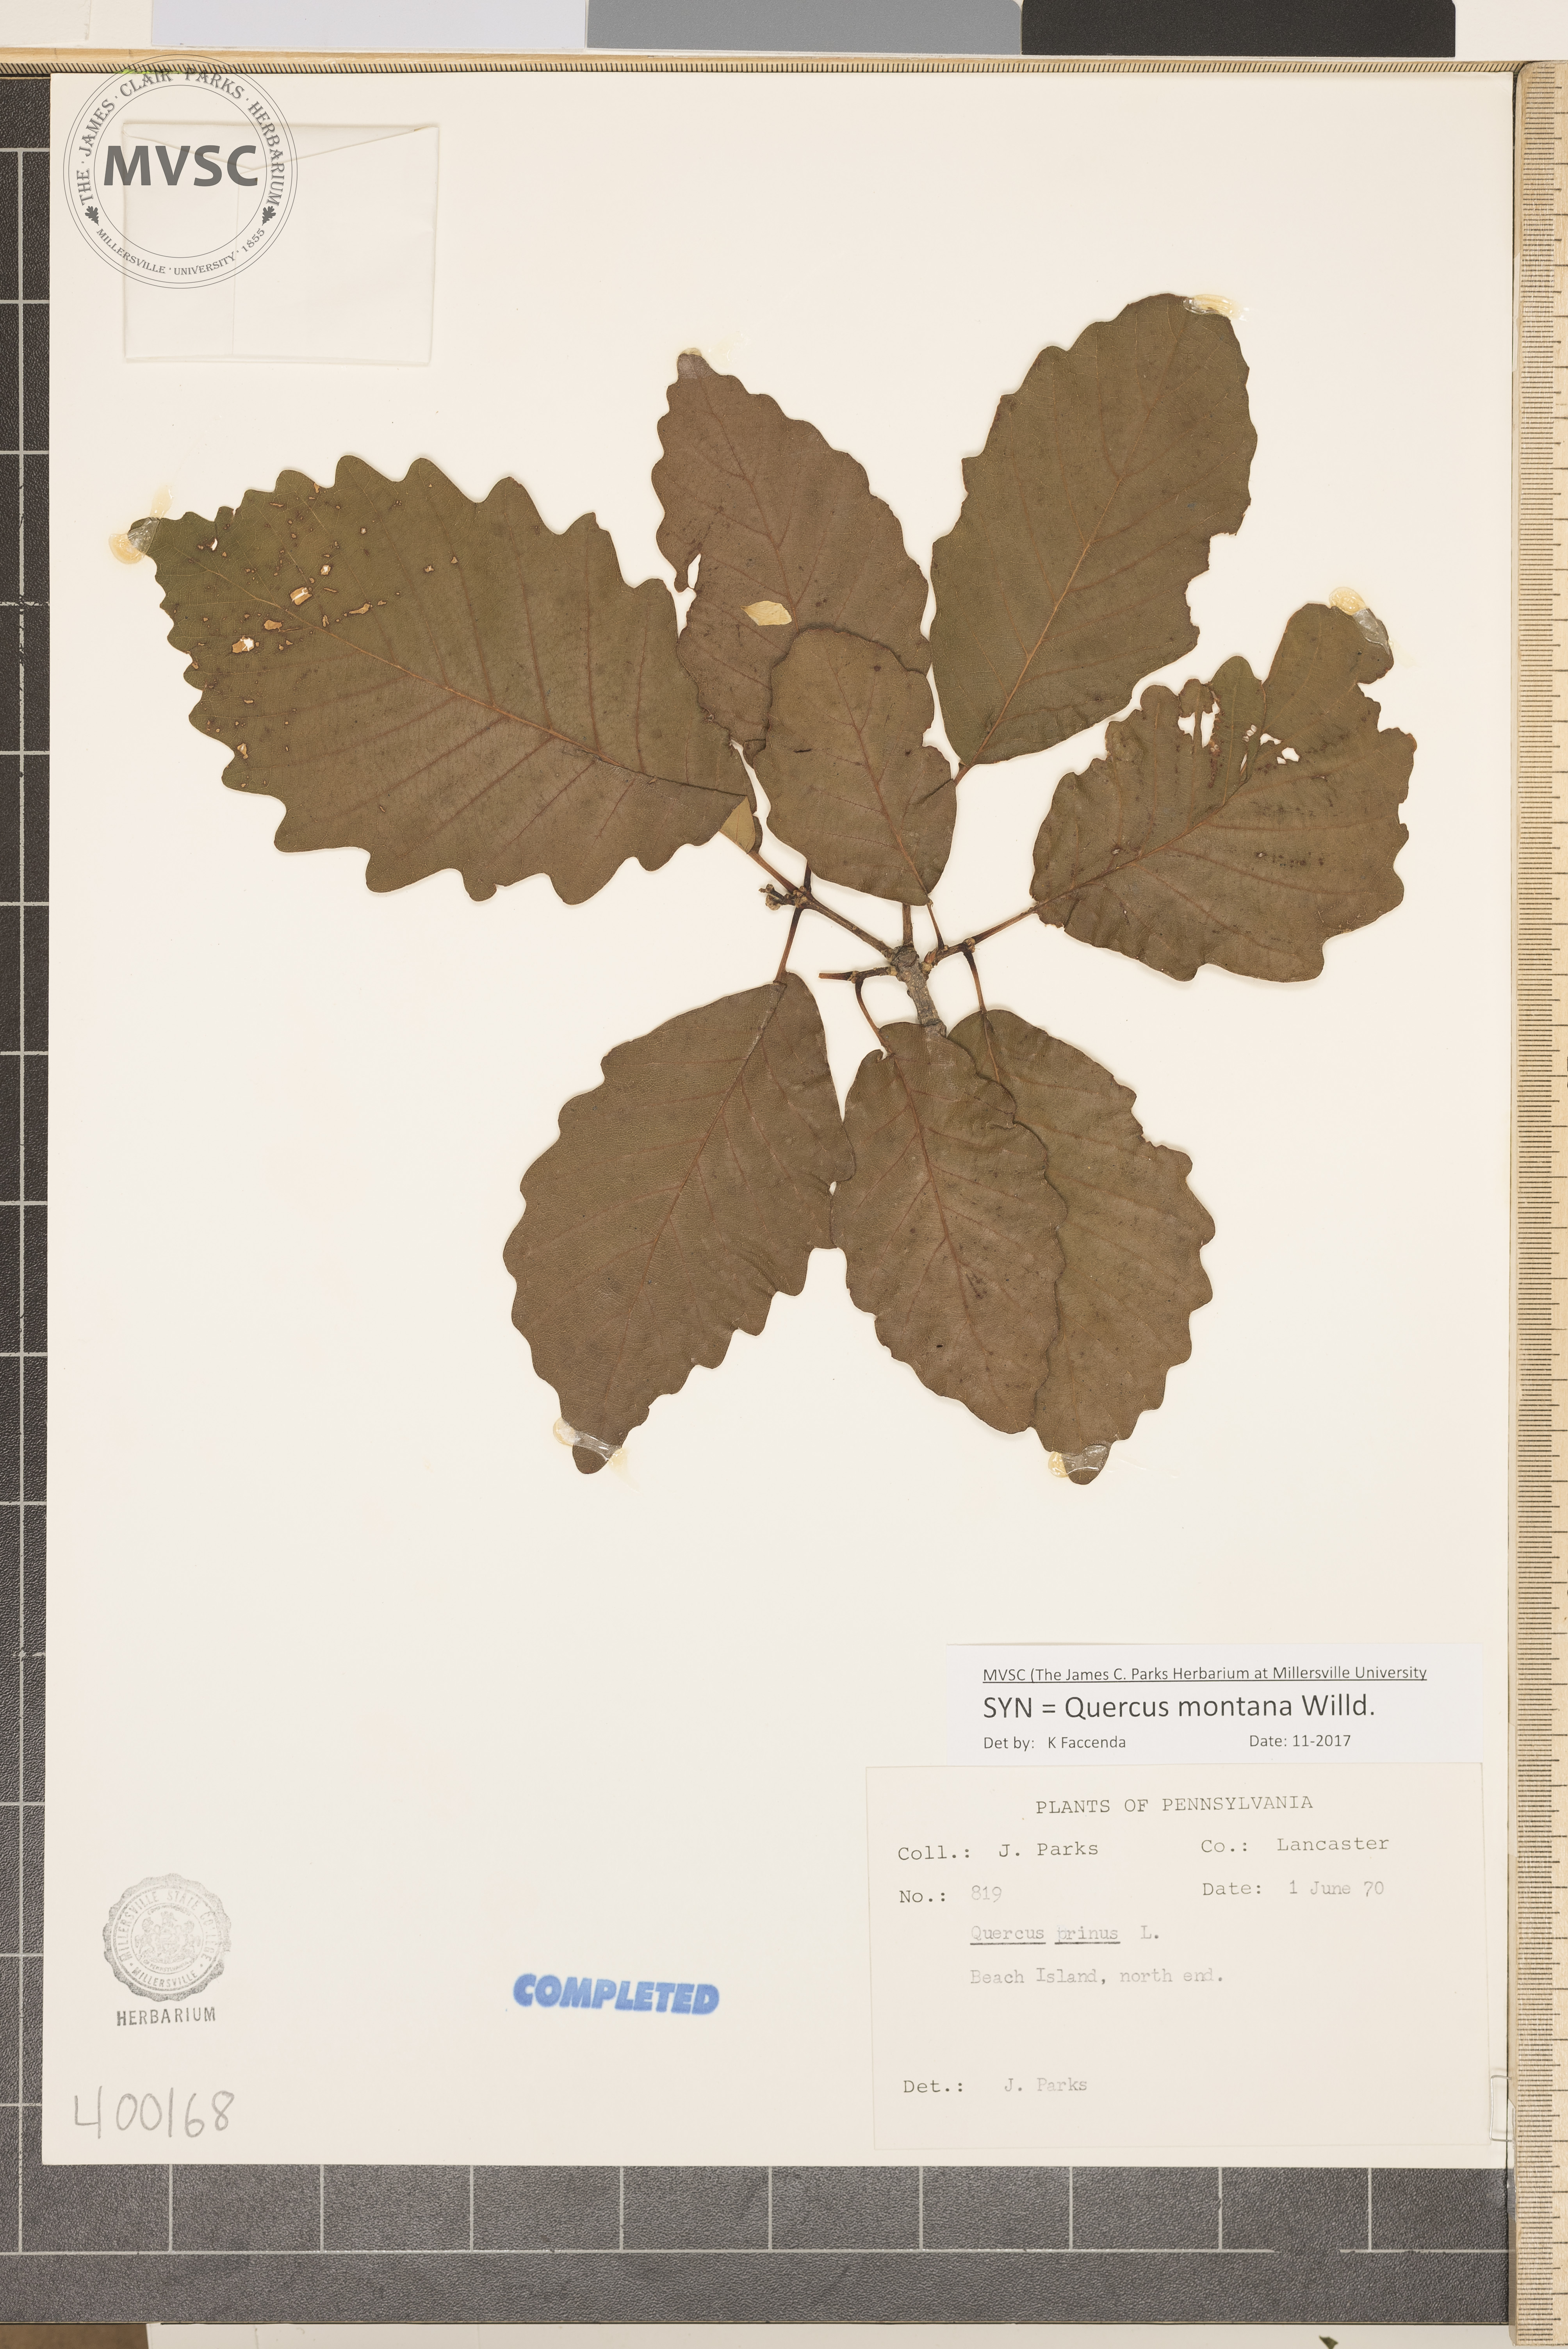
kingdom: Plantae
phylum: Tracheophyta
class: Magnoliopsida
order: Fagales
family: Fagaceae
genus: Quercus
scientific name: Quercus montana
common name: chestnut oak
